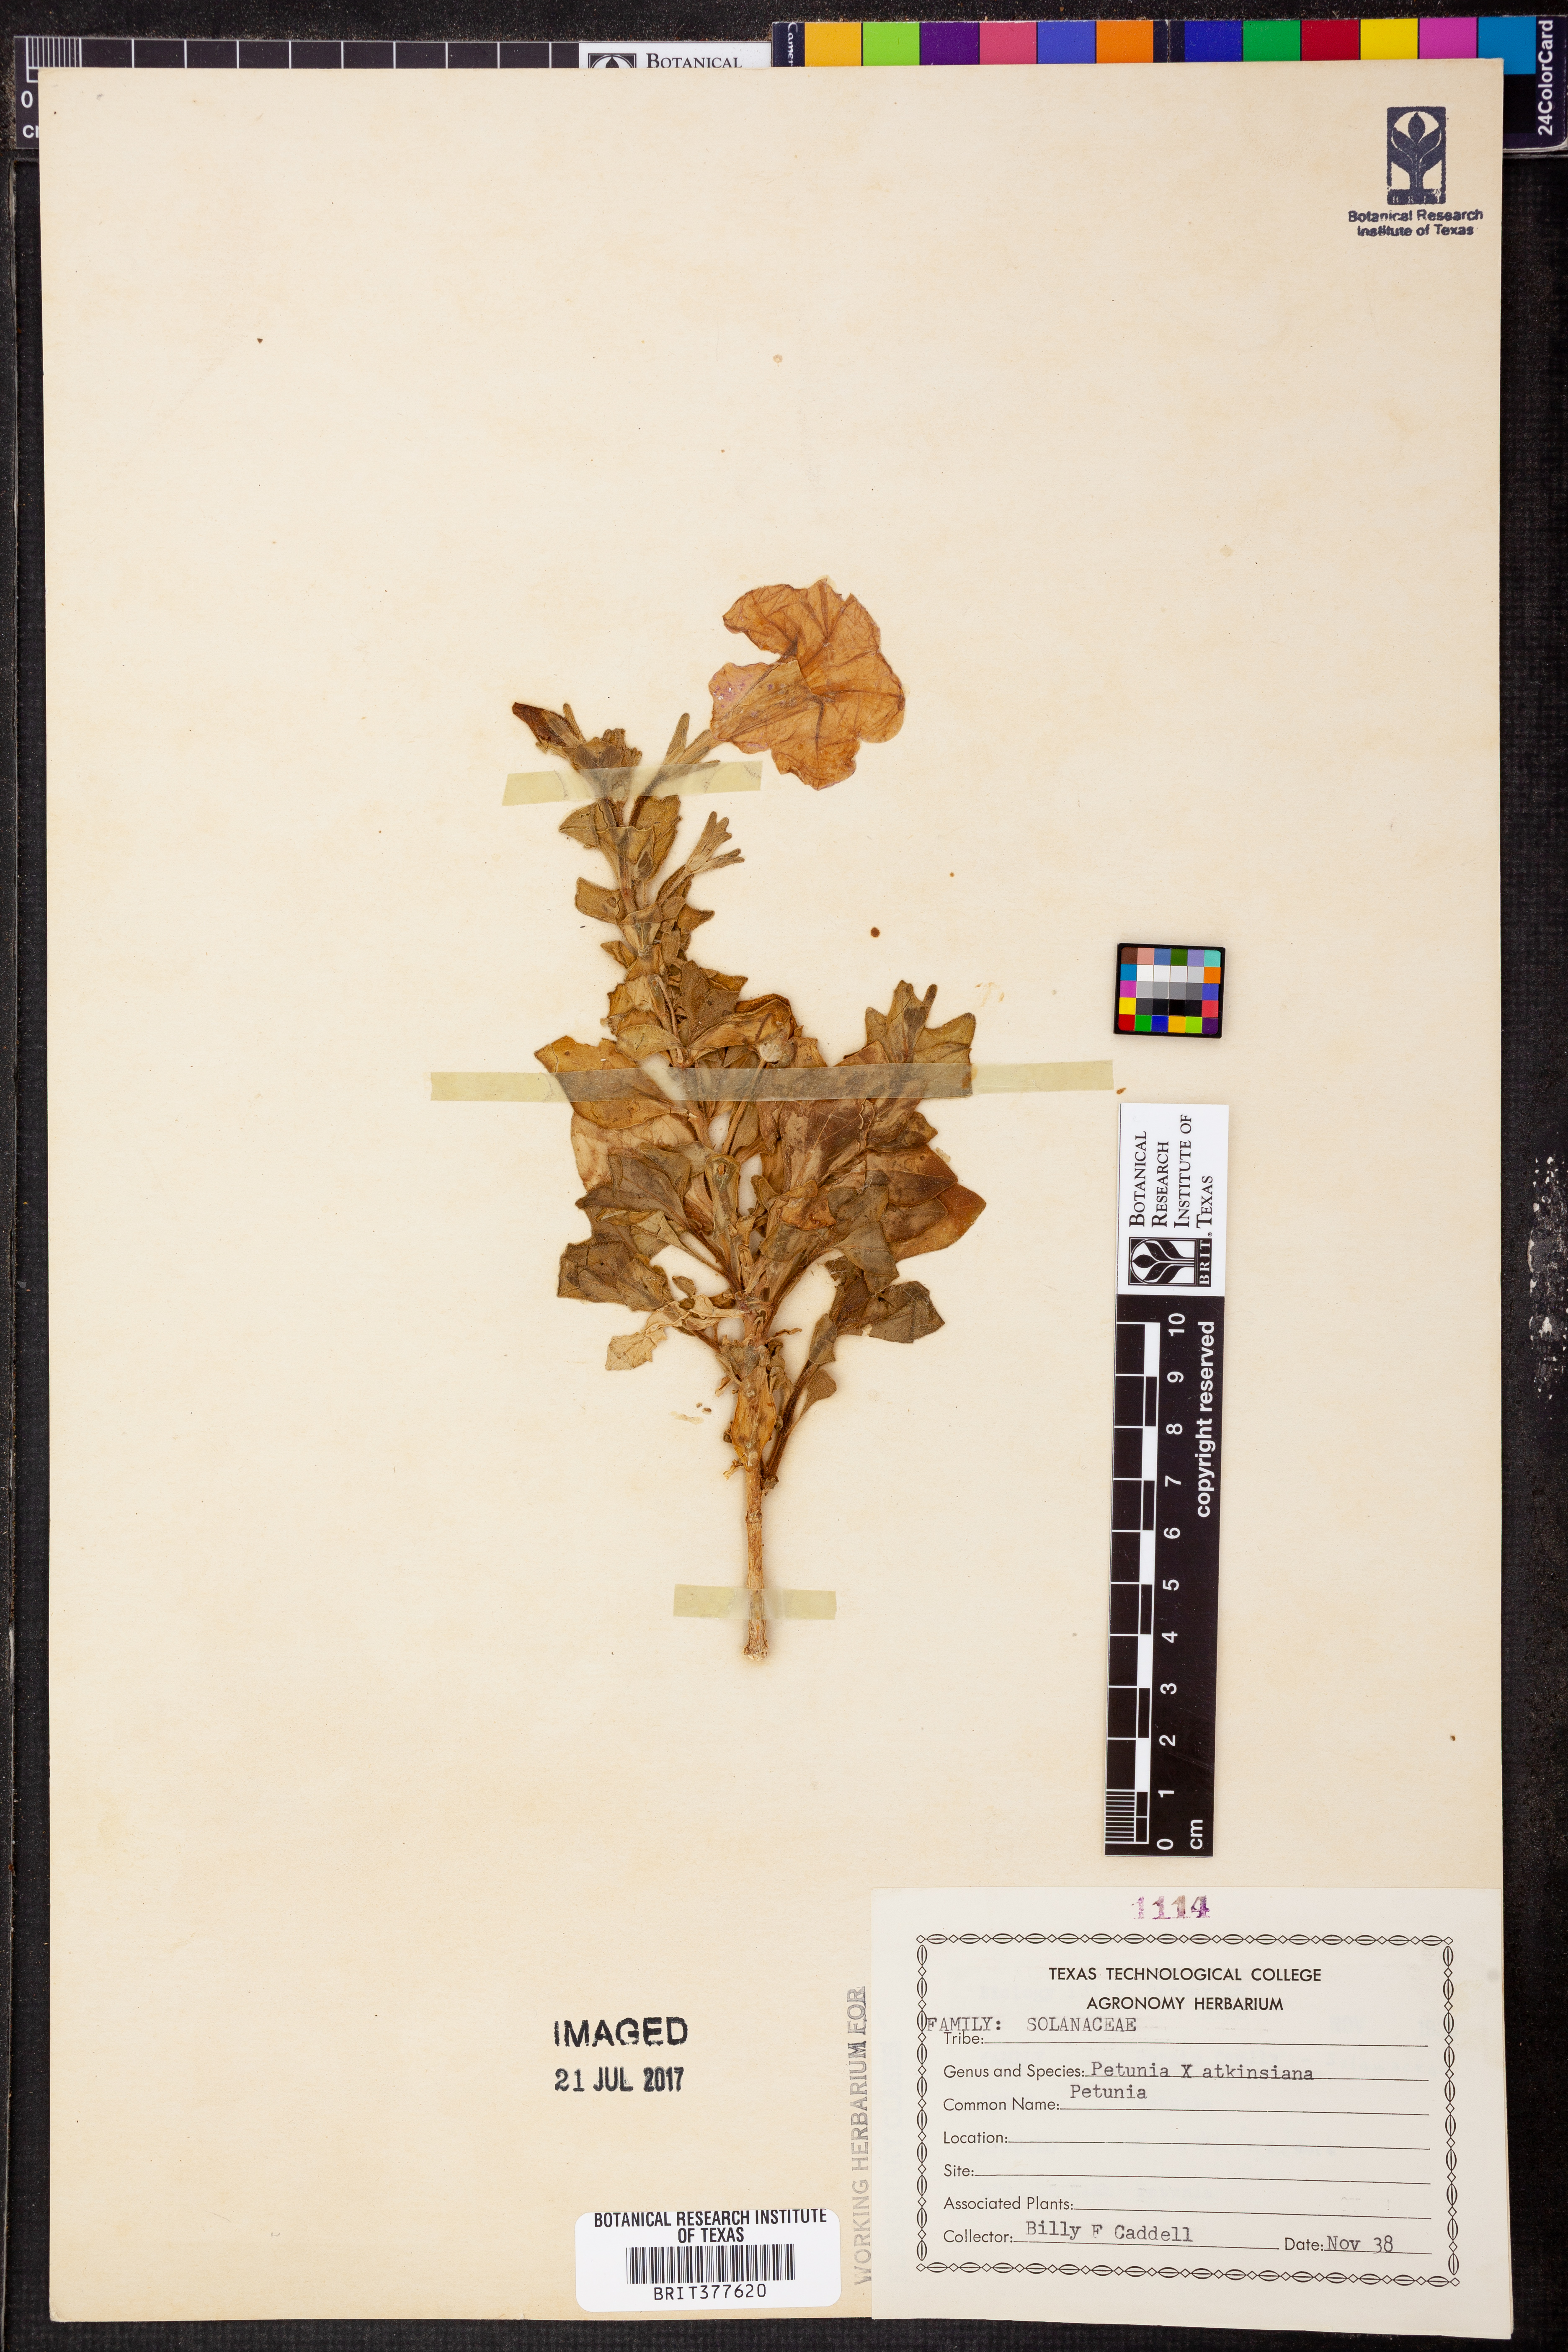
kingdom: Plantae
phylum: Tracheophyta
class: Magnoliopsida
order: Solanales
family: Solanaceae
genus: Petunia
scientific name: Petunia atkinsiana
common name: Petunia
